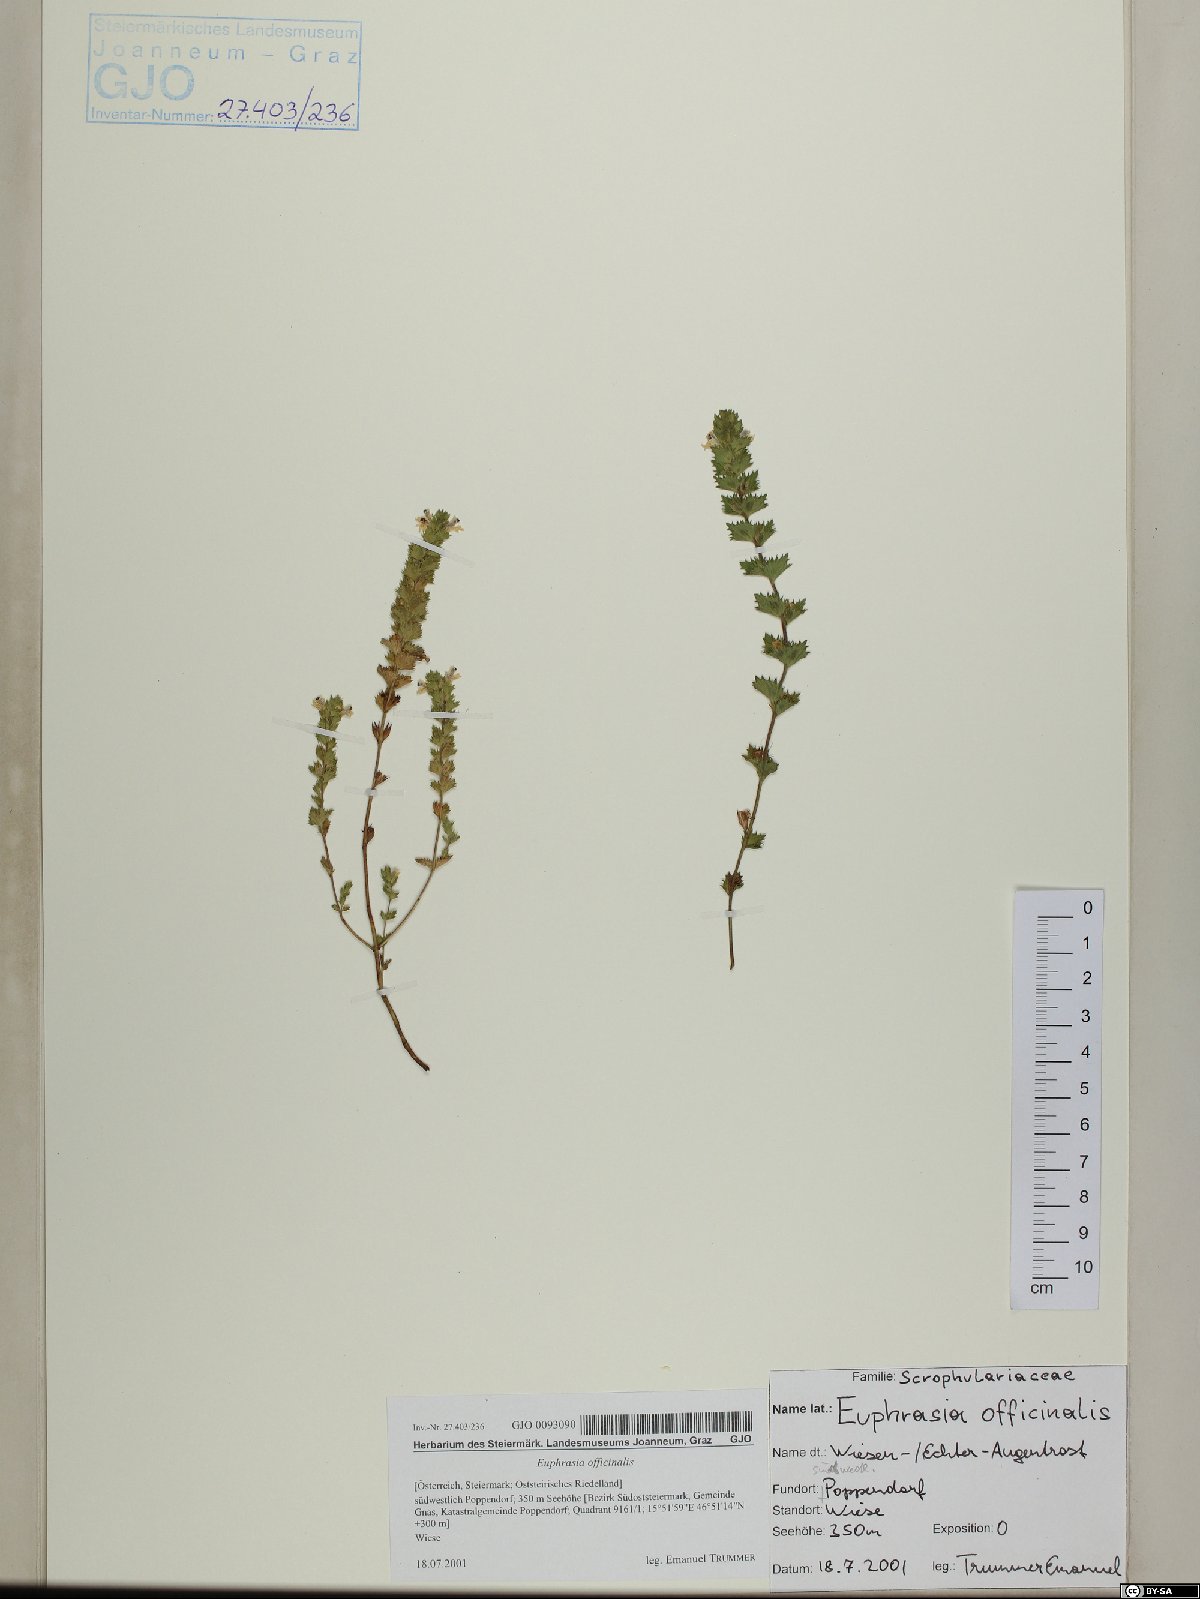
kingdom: Plantae
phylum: Tracheophyta
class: Magnoliopsida
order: Lamiales
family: Orobanchaceae
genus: Euphrasia
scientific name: Euphrasia officinalis
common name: Eyebright
